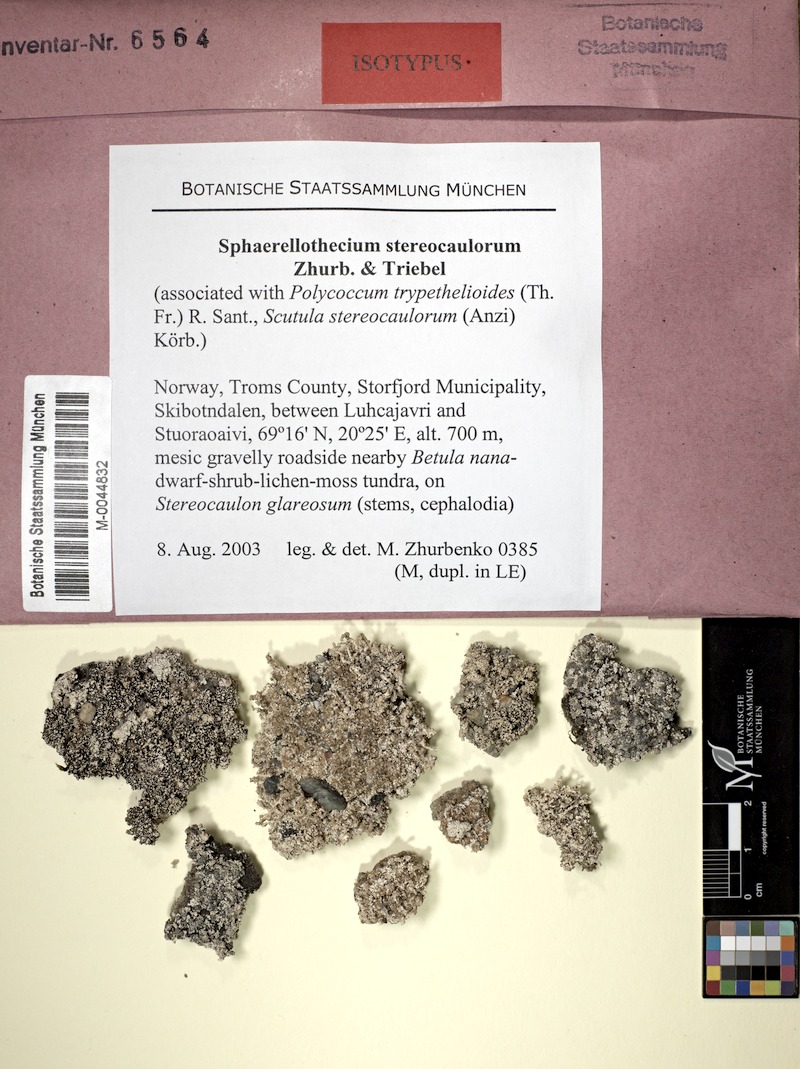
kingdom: Fungi
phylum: Ascomycota
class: Dothideomycetes
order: Trypetheliales
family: Polycoccaceae
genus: Polycoccum
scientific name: Polycoccum trypethelioides
